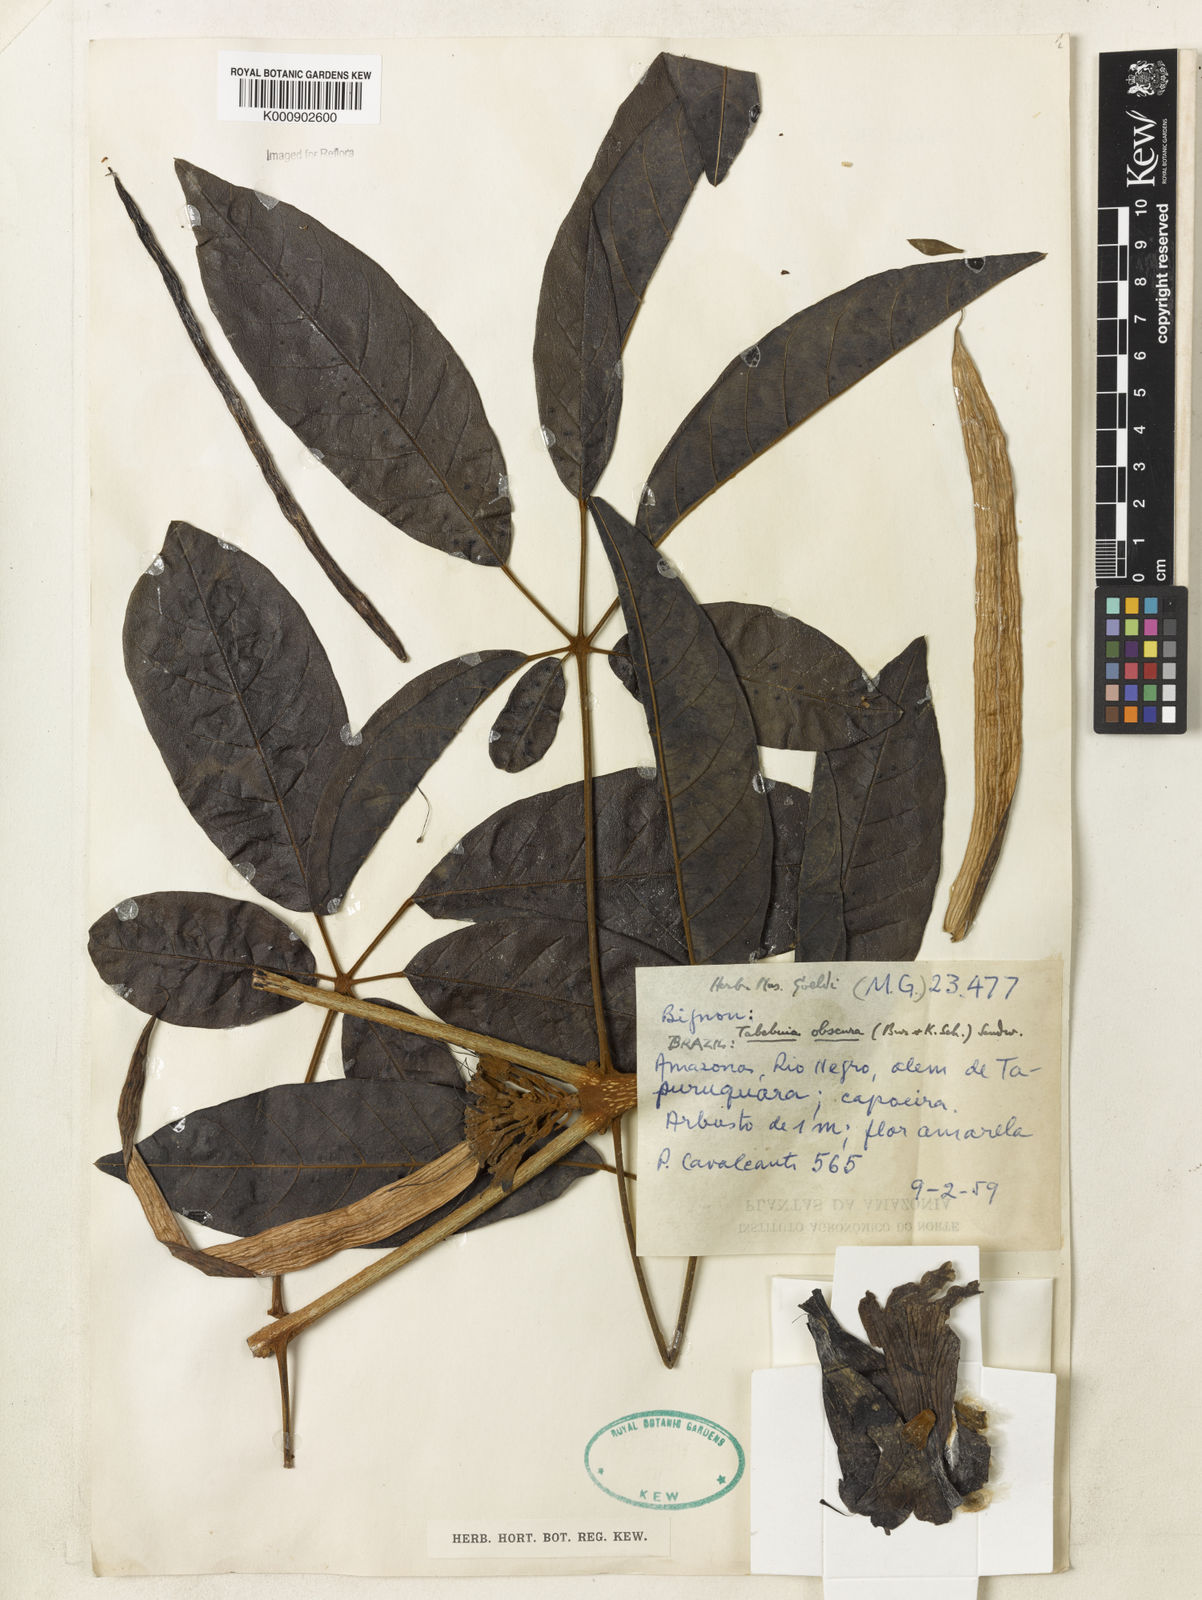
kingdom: Plantae
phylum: Tracheophyta
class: Magnoliopsida
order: Lamiales
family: Bignoniaceae
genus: Handroanthus
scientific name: Handroanthus obscurus
